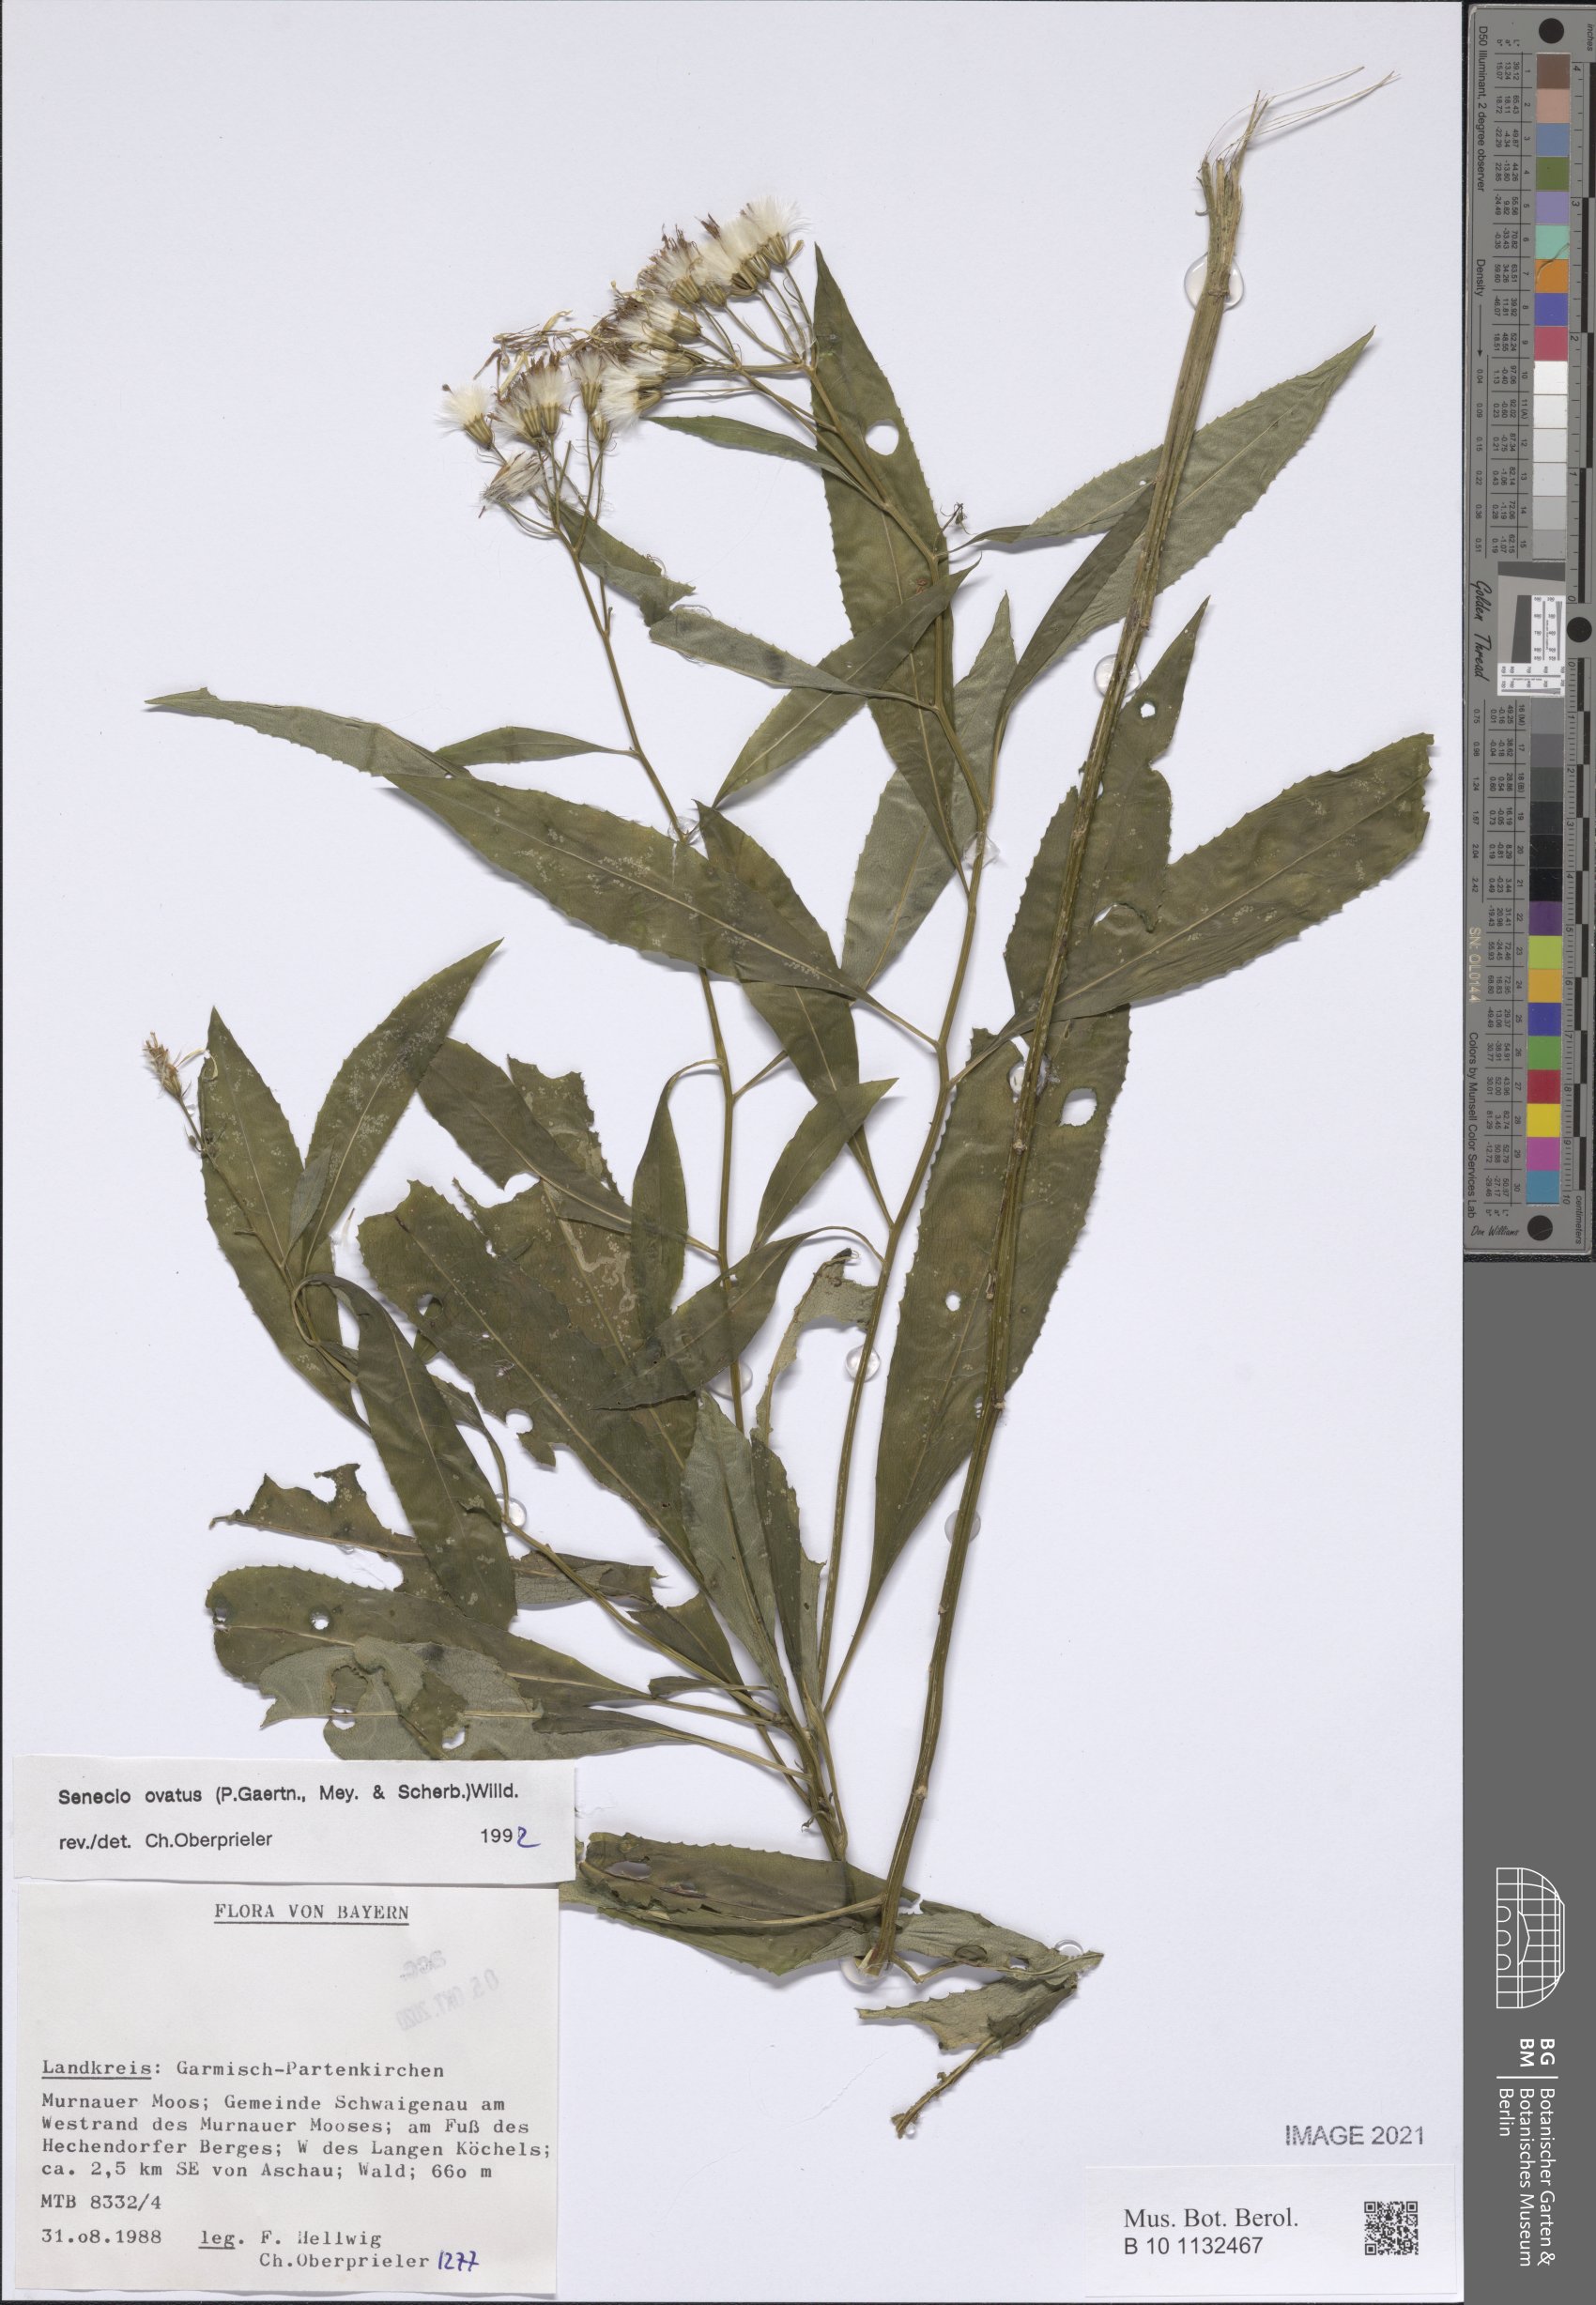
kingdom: Plantae
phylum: Tracheophyta
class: Magnoliopsida
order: Asterales
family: Asteraceae
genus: Senecio
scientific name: Senecio ovatus
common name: Wood ragwort
